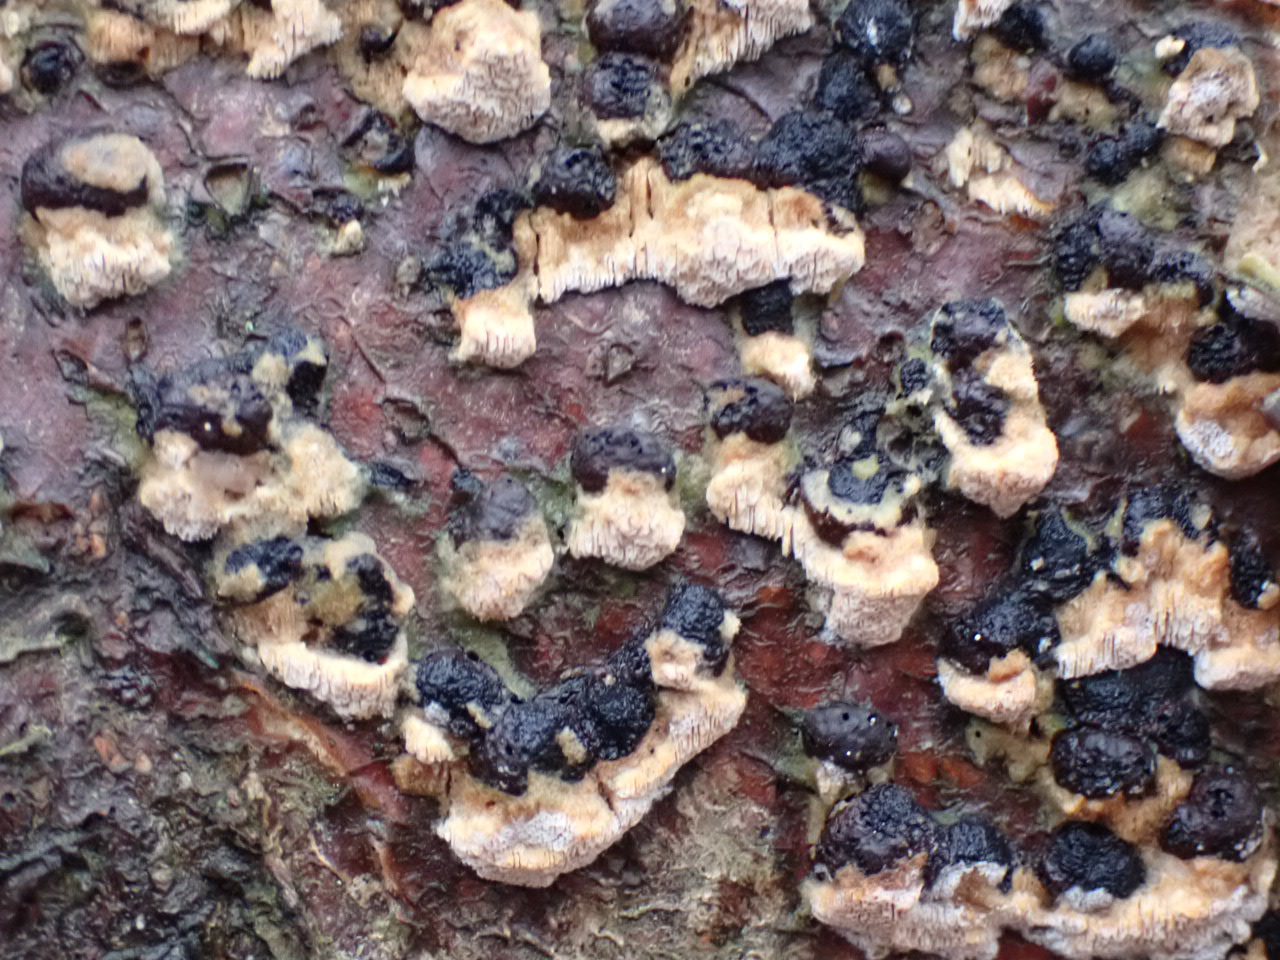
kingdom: Fungi
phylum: Basidiomycota
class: Agaricomycetes
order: Hymenochaetales
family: Schizoporaceae
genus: Xylodon
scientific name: Xylodon
